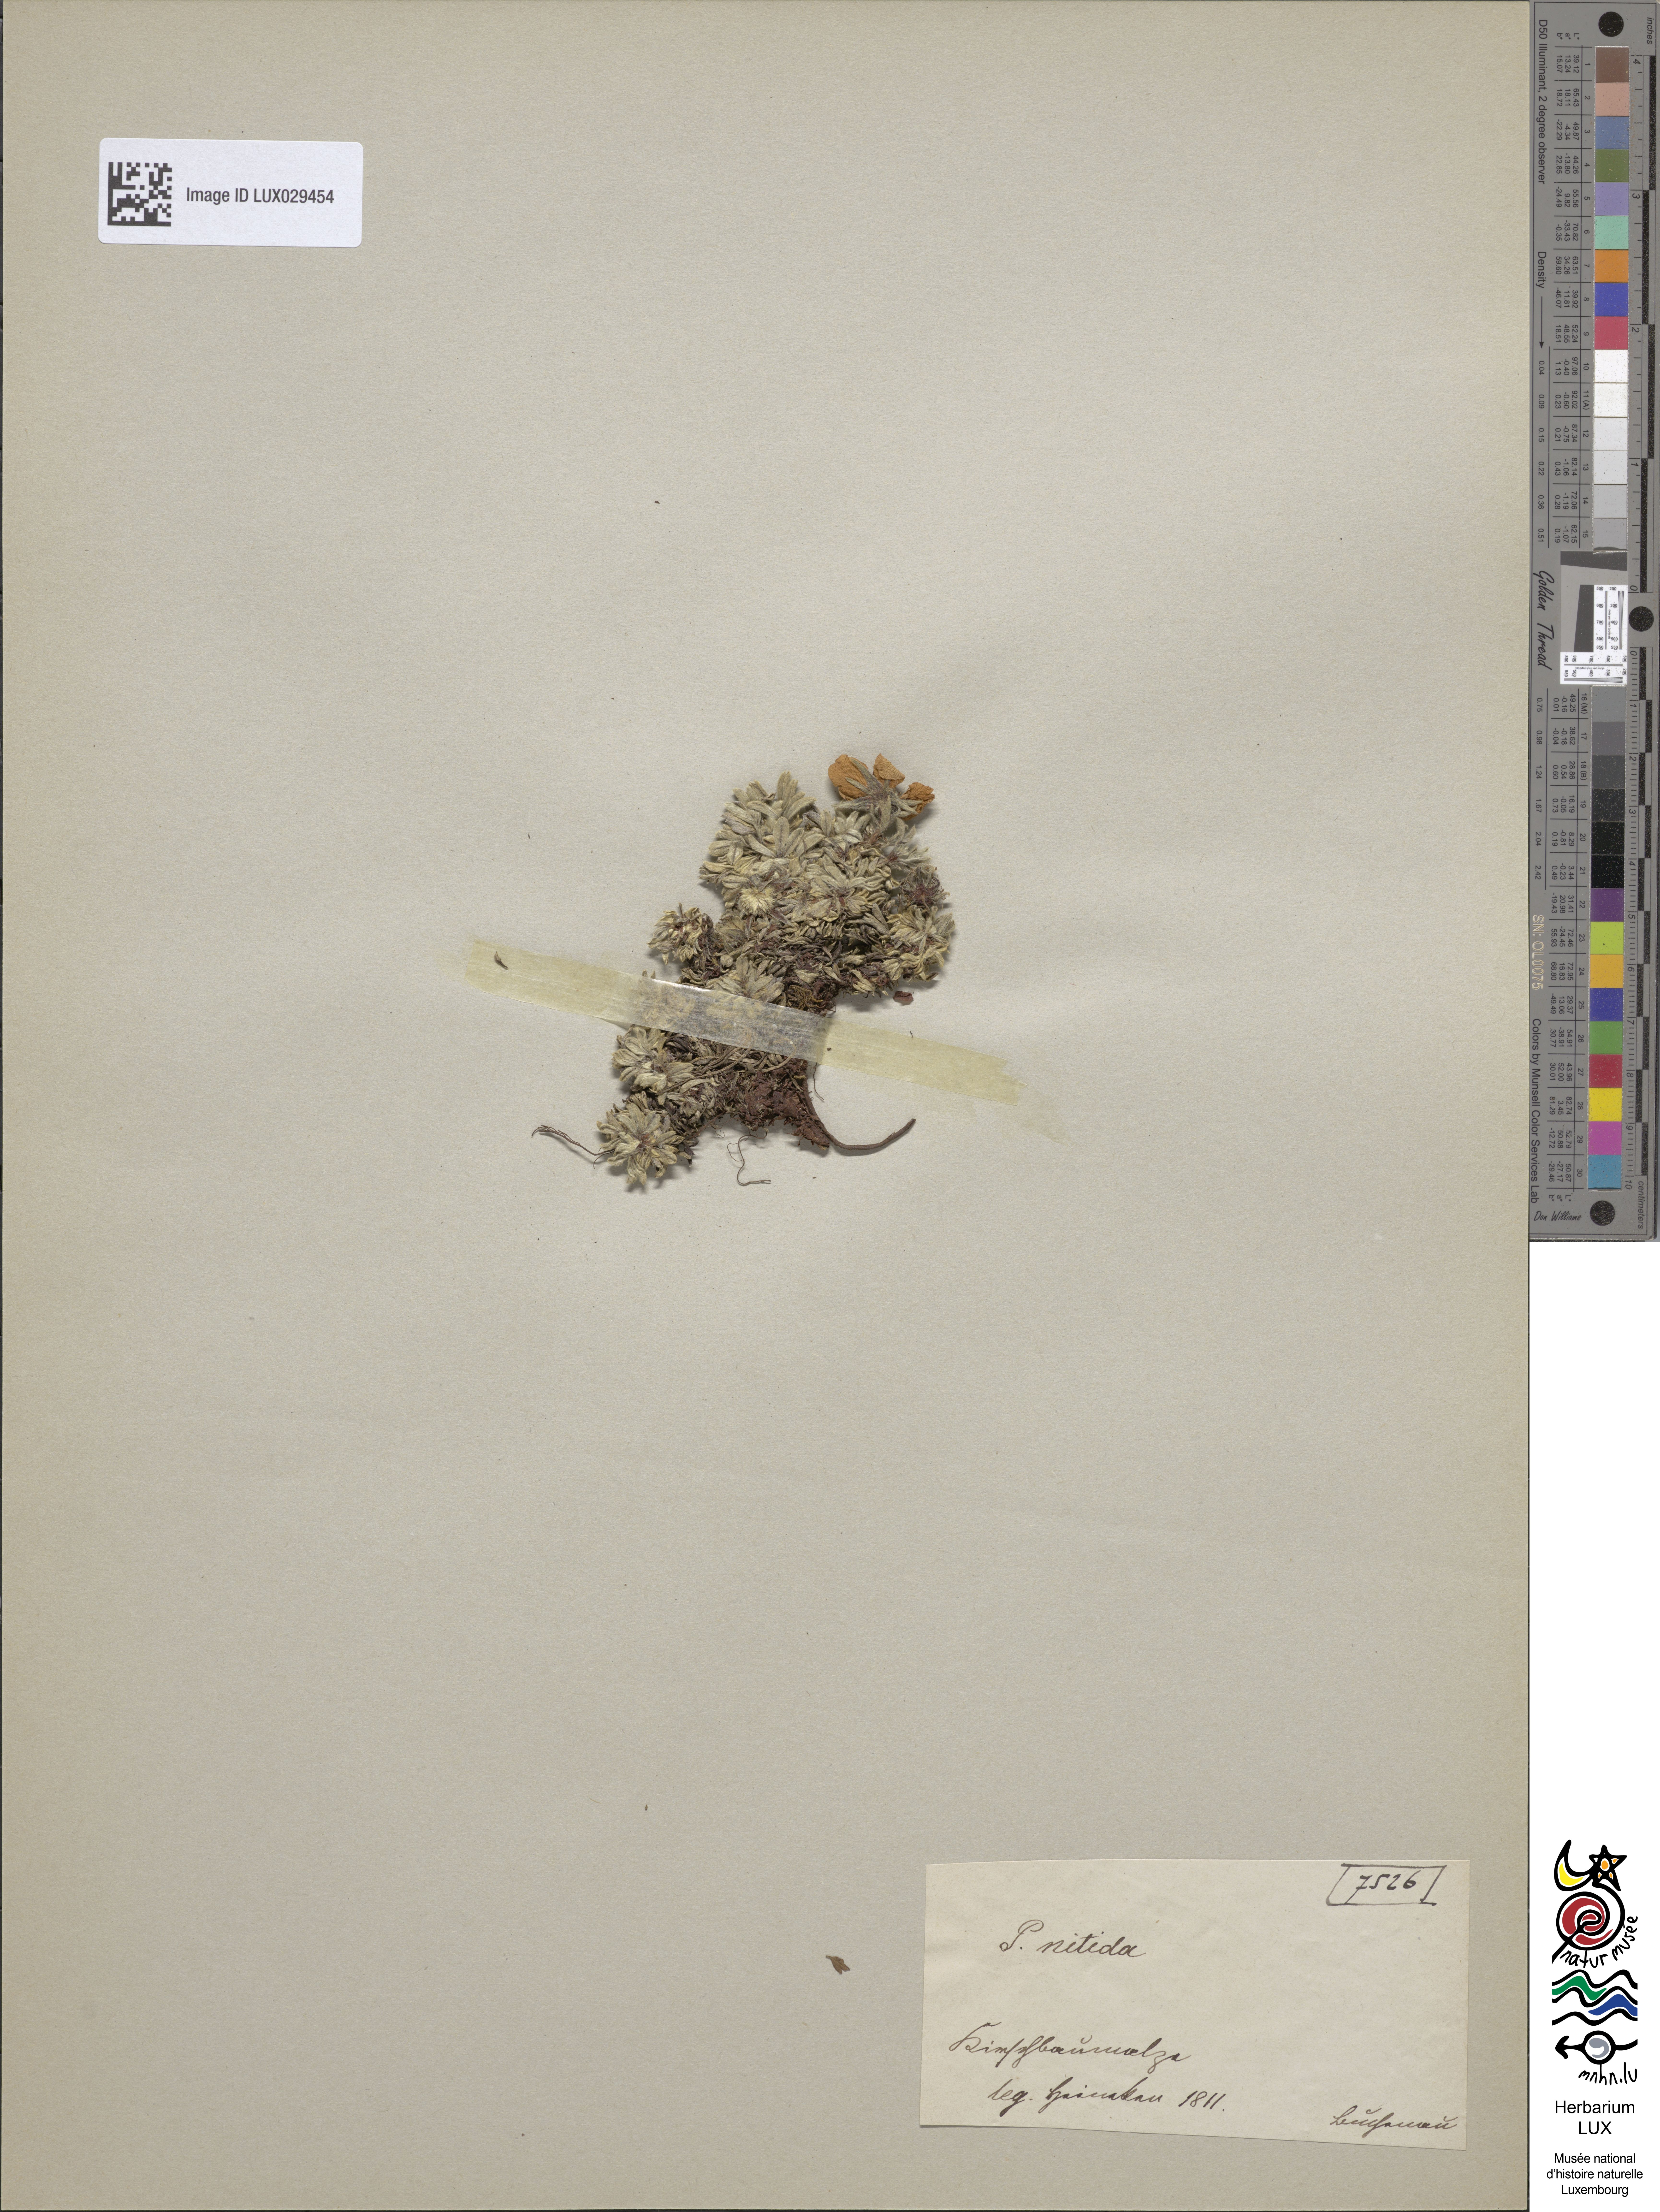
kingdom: Plantae
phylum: Tracheophyta
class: Magnoliopsida
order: Rosales
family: Rosaceae
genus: Potentilla
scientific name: Potentilla nitida
